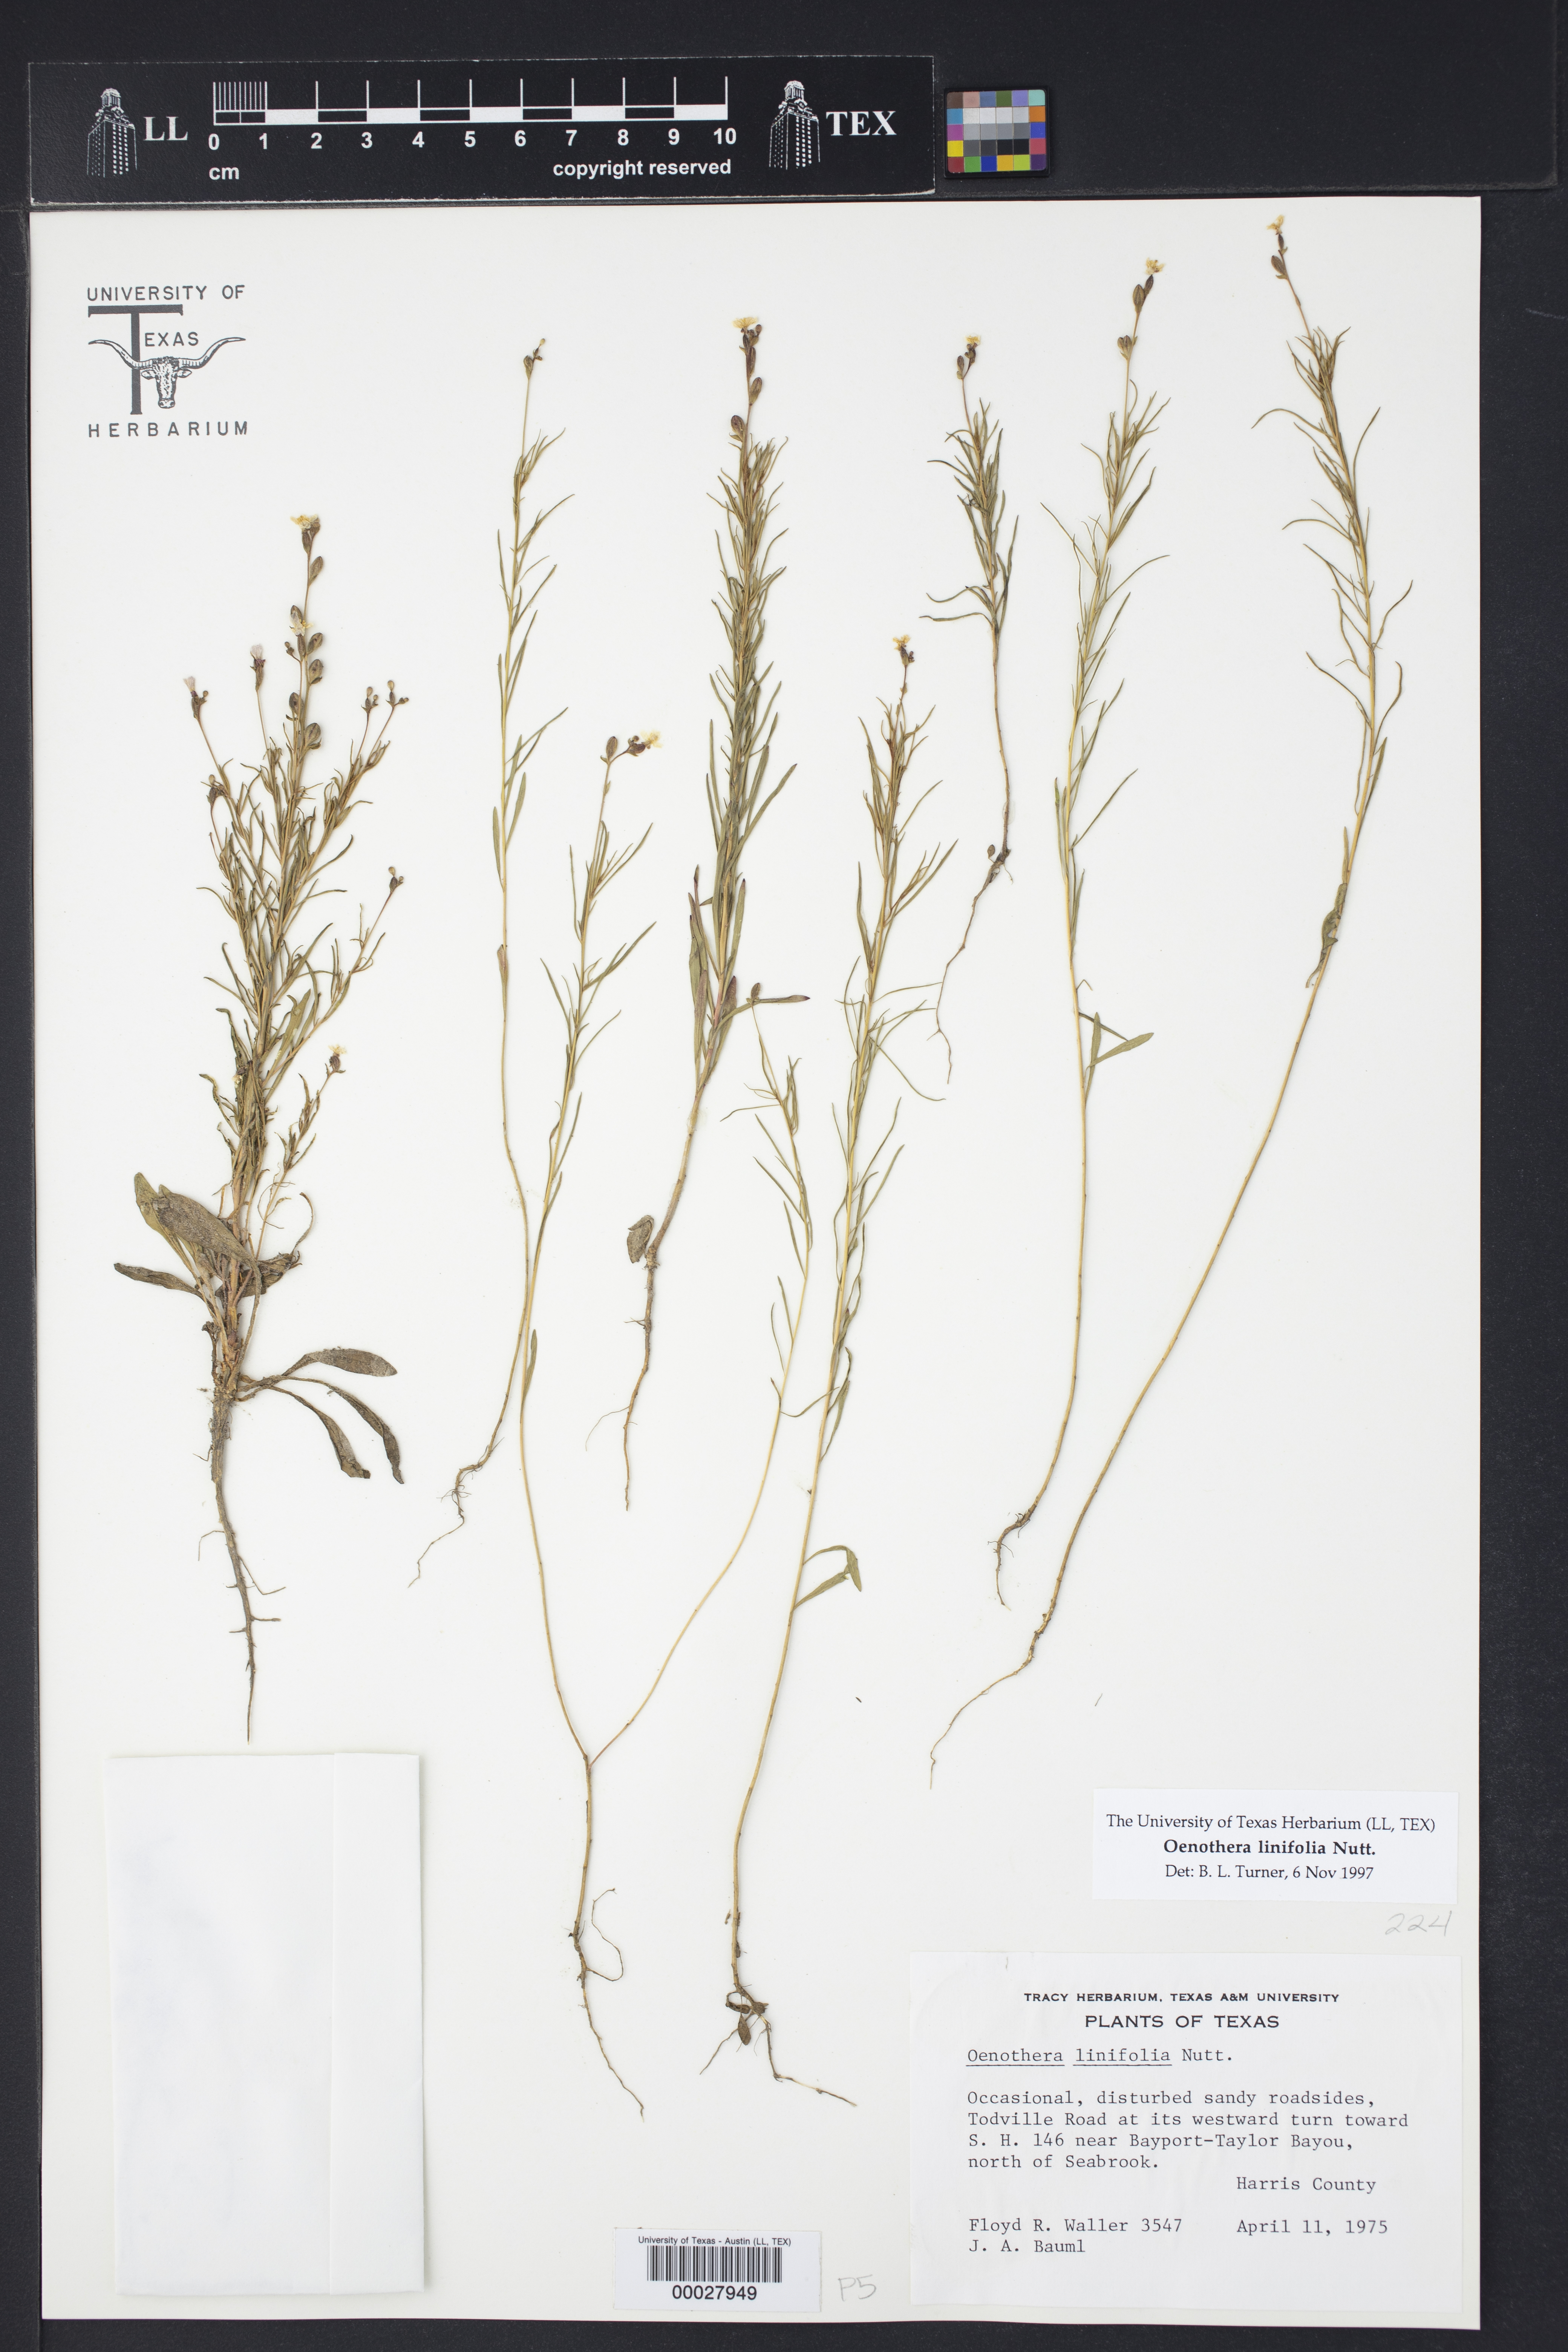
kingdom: Plantae
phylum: Tracheophyta
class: Magnoliopsida
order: Myrtales
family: Onagraceae
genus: Oenothera
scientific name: Oenothera linifolia
